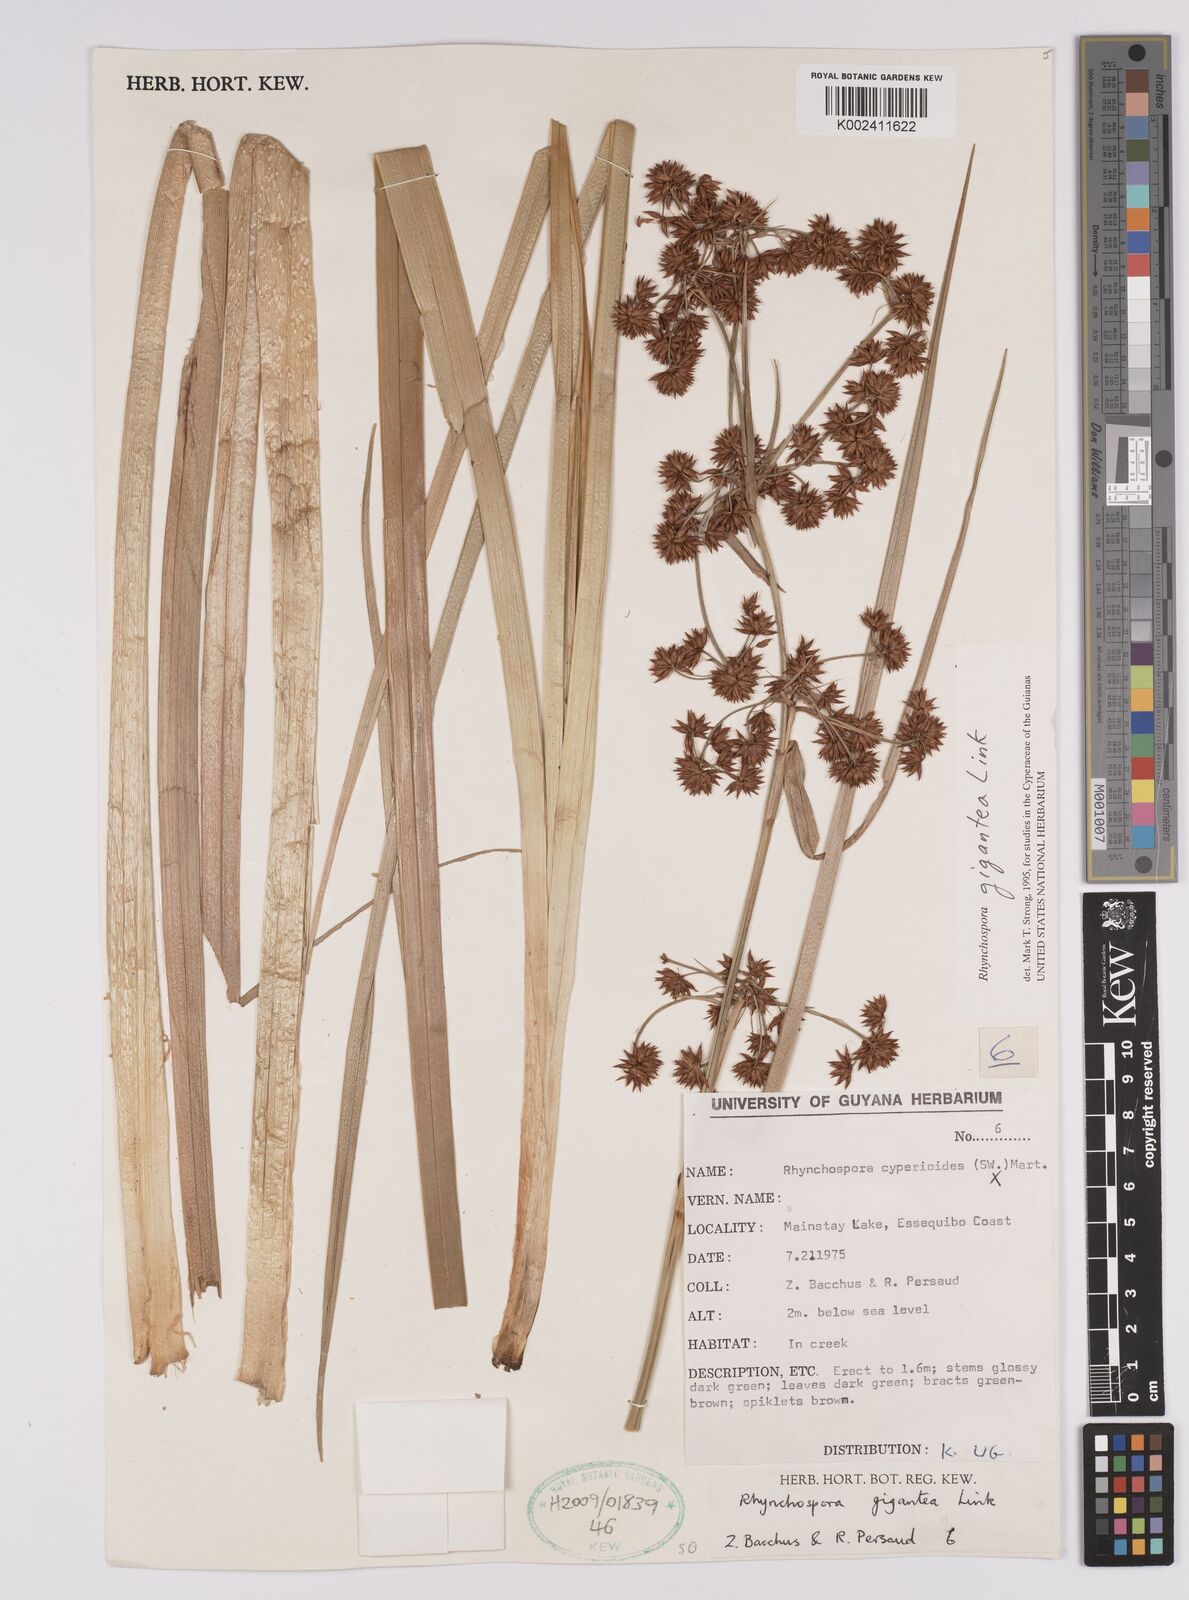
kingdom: Plantae
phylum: Tracheophyta
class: Liliopsida
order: Poales
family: Cyperaceae
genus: Rhynchospora
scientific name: Rhynchospora gigantea
